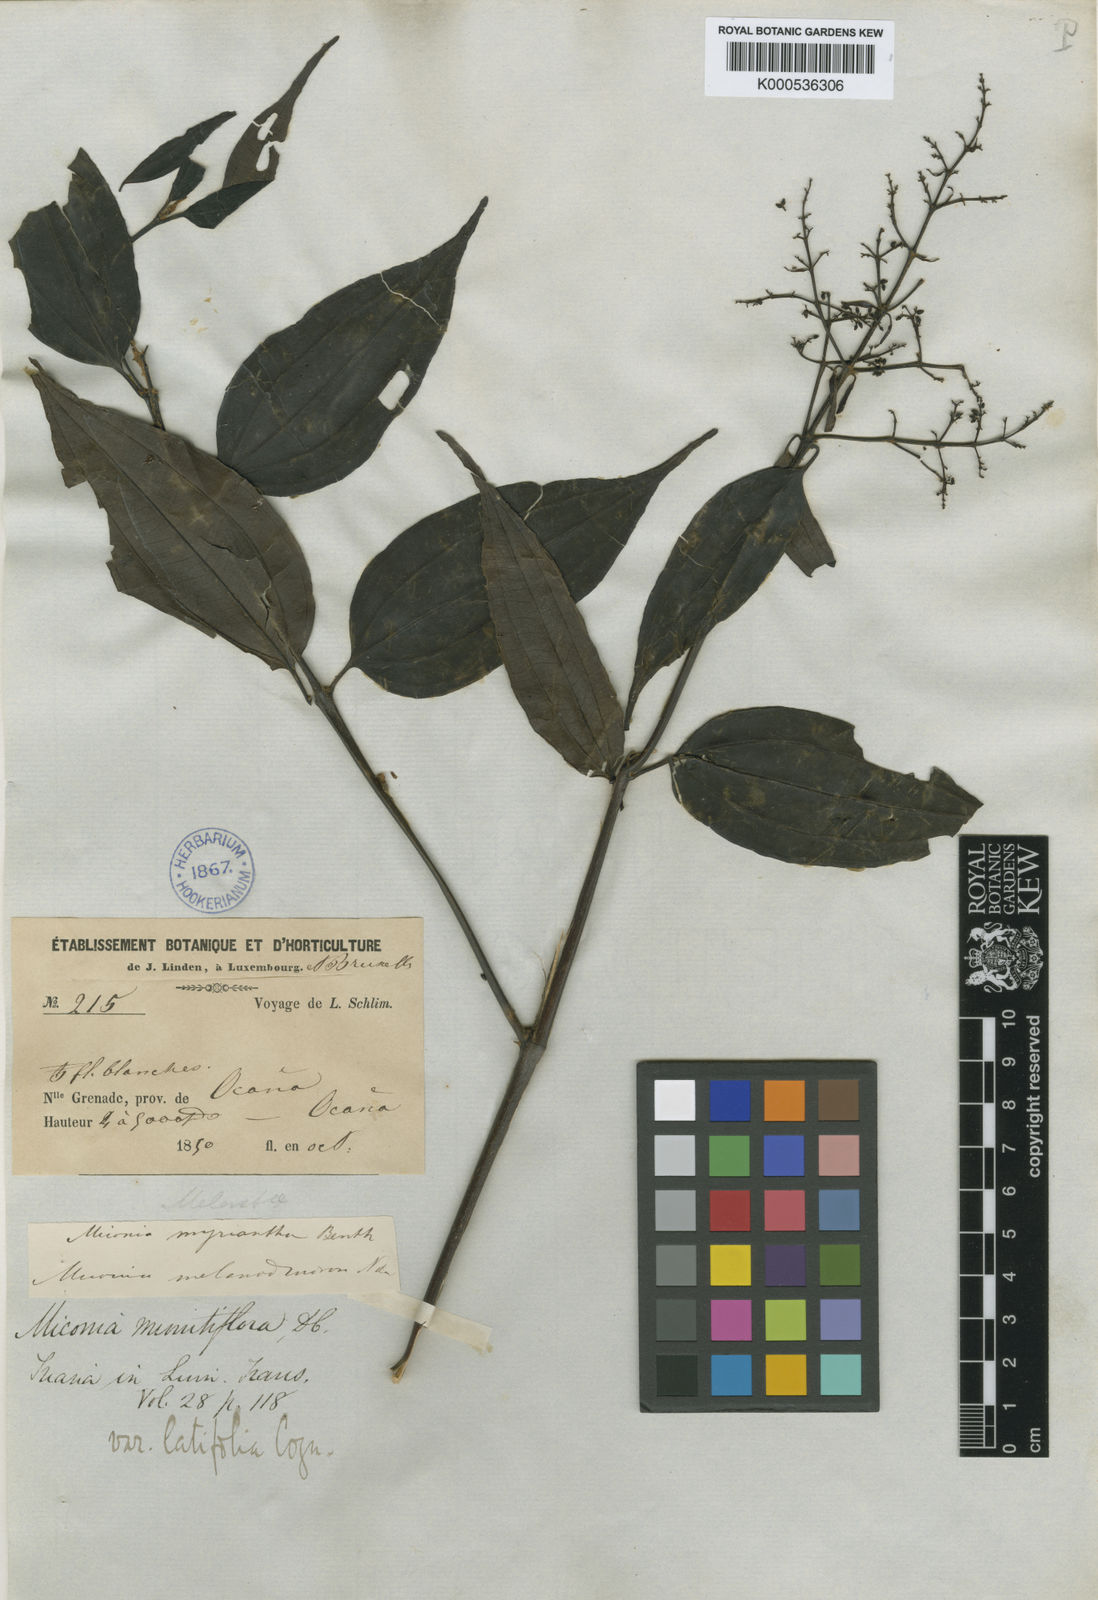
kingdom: Plantae
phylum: Tracheophyta
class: Magnoliopsida
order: Myrtales
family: Melastomataceae
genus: Miconia
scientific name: Miconia minutiflora
